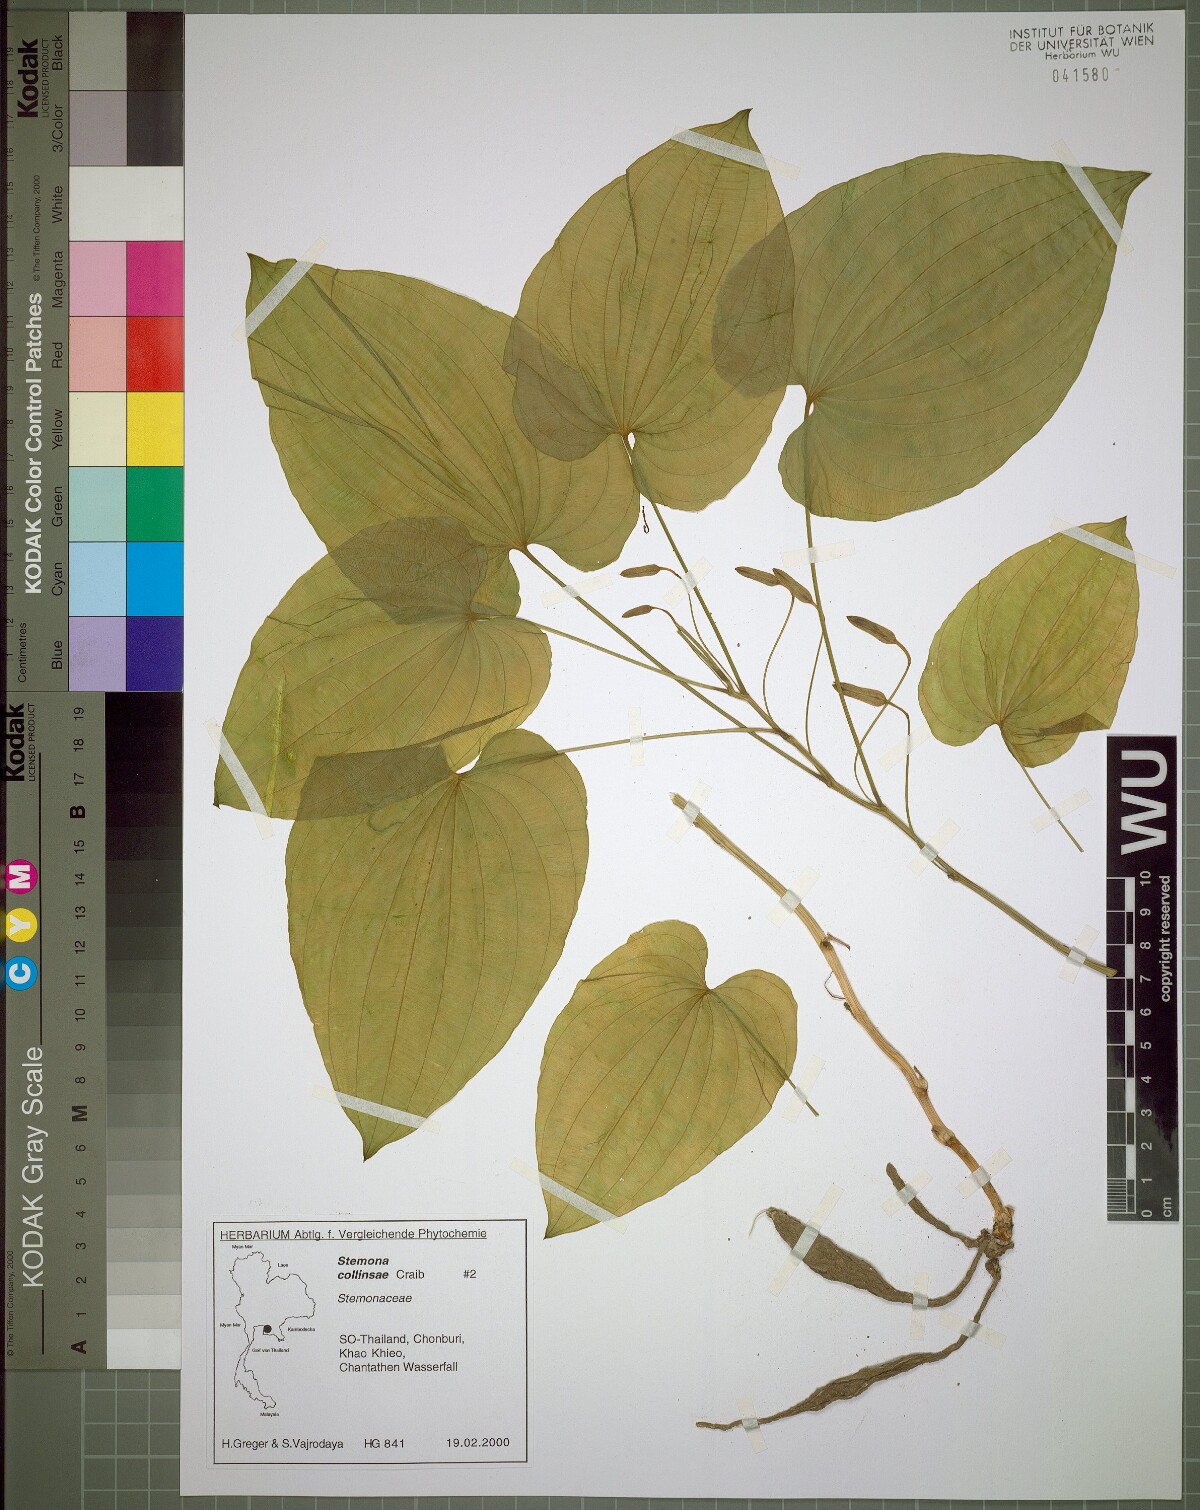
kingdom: Plantae
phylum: Tracheophyta
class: Liliopsida
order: Pandanales
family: Stemonaceae
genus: Stemona
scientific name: Stemona collinsiae
